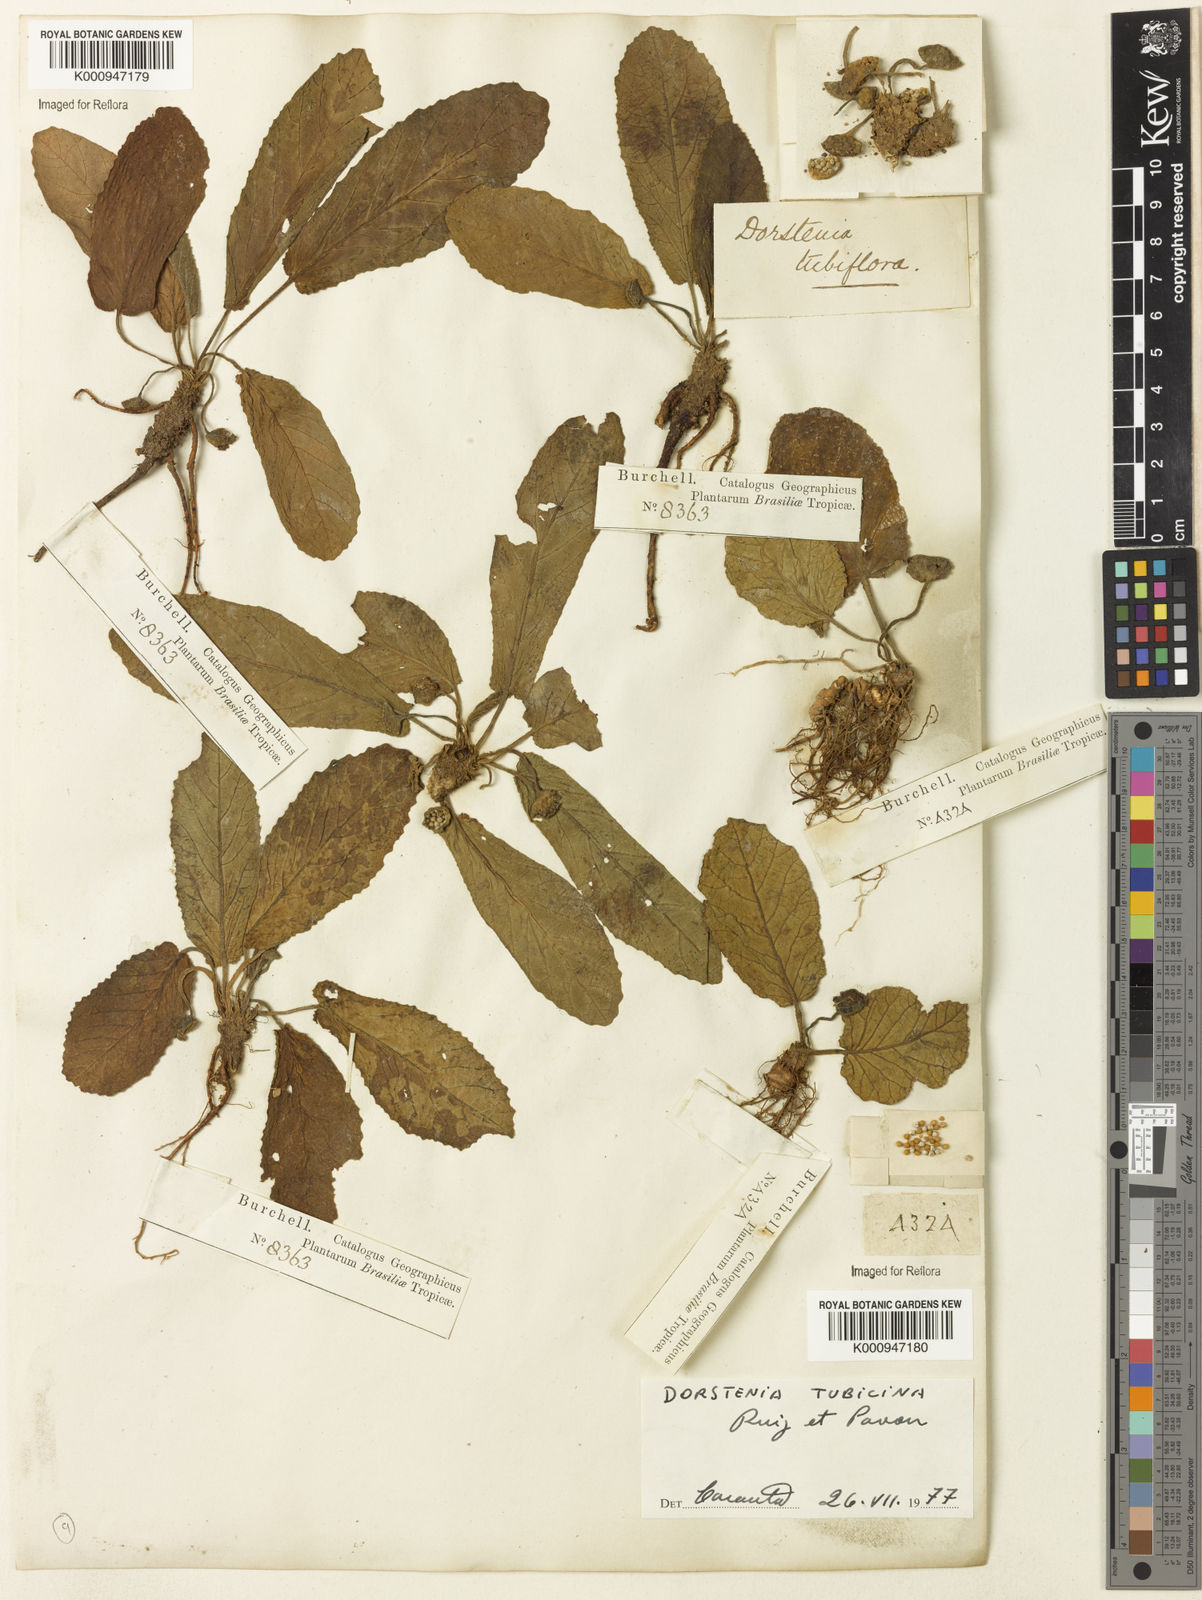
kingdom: Plantae
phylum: Tracheophyta
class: Magnoliopsida
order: Rosales
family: Moraceae
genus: Dorstenia
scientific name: Dorstenia brasiliensis
